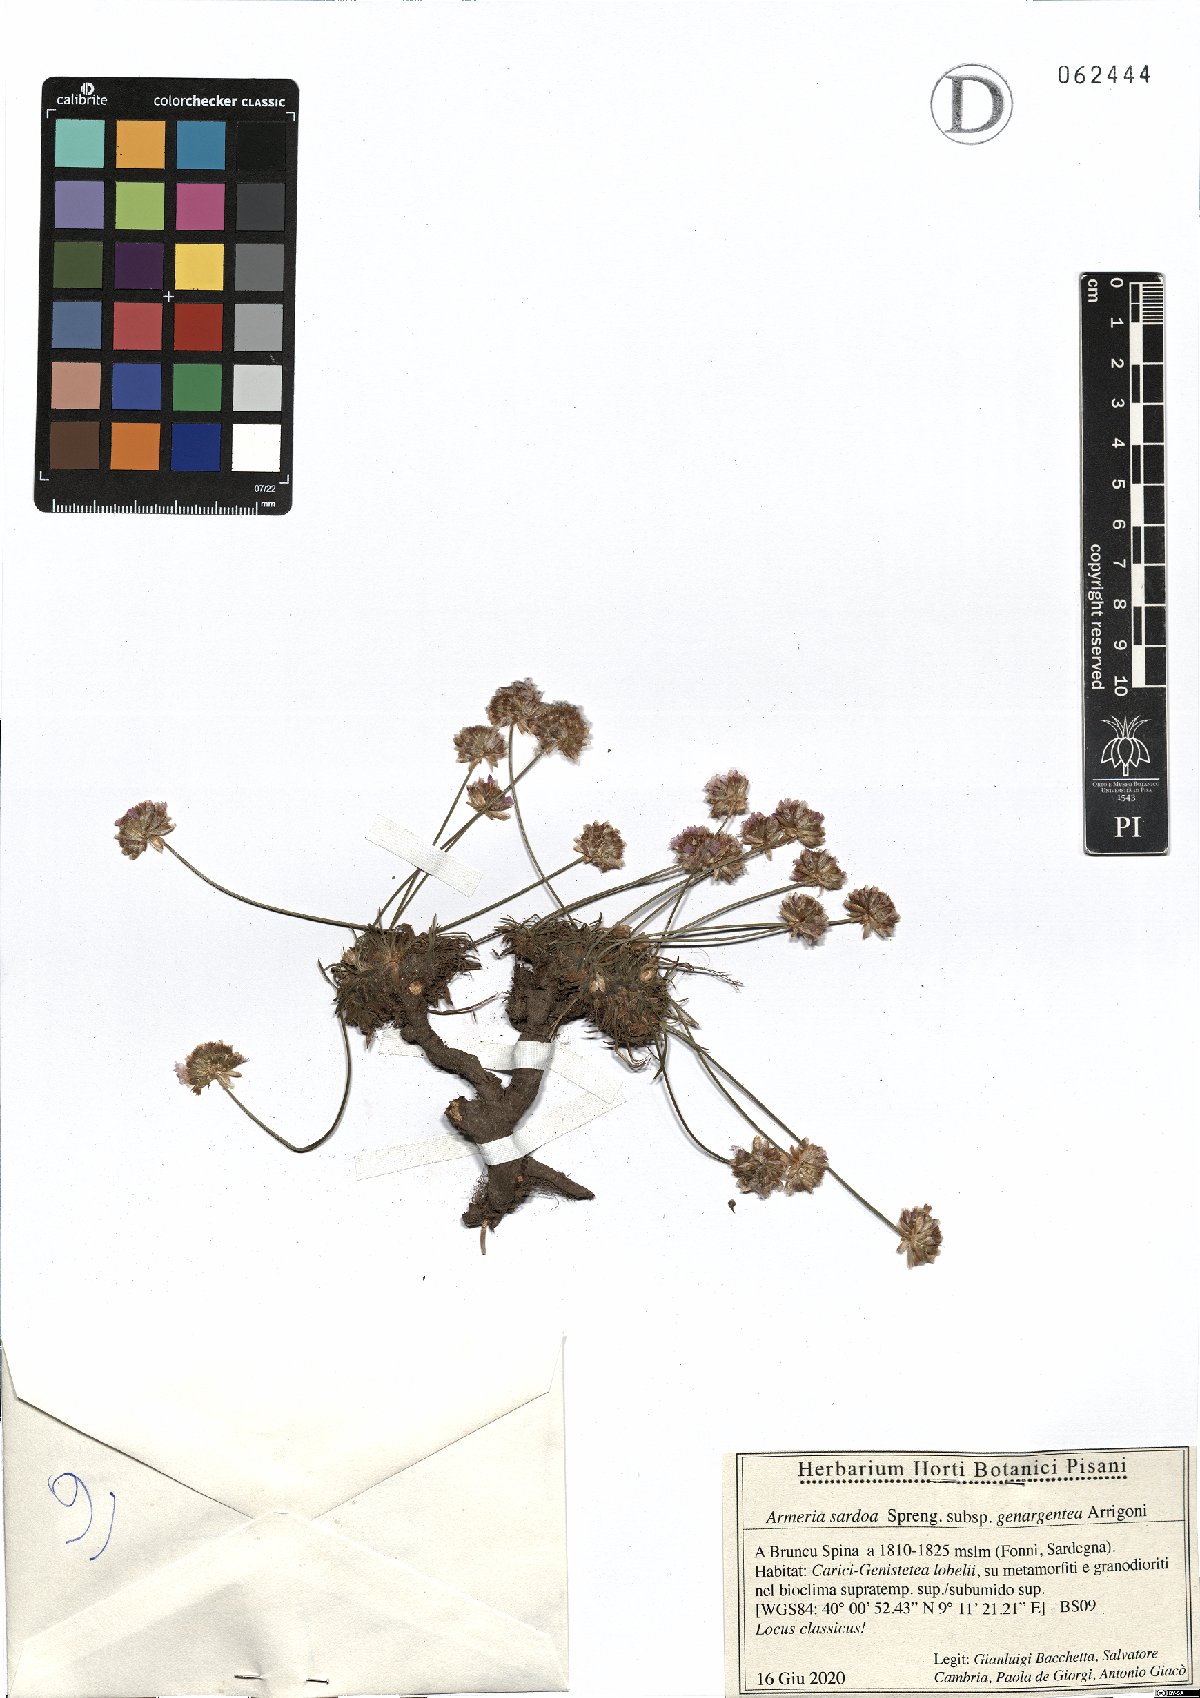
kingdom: Plantae
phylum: Tracheophyta
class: Magnoliopsida
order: Caryophyllales
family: Plumbaginaceae
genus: Armeria
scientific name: Armeria sardoa
